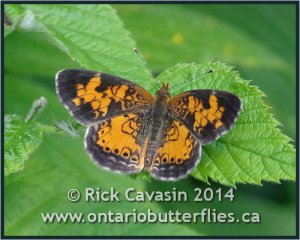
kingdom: Animalia
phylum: Arthropoda
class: Insecta
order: Lepidoptera
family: Nymphalidae
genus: Phyciodes
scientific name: Phyciodes tharos
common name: Northern Crescent
